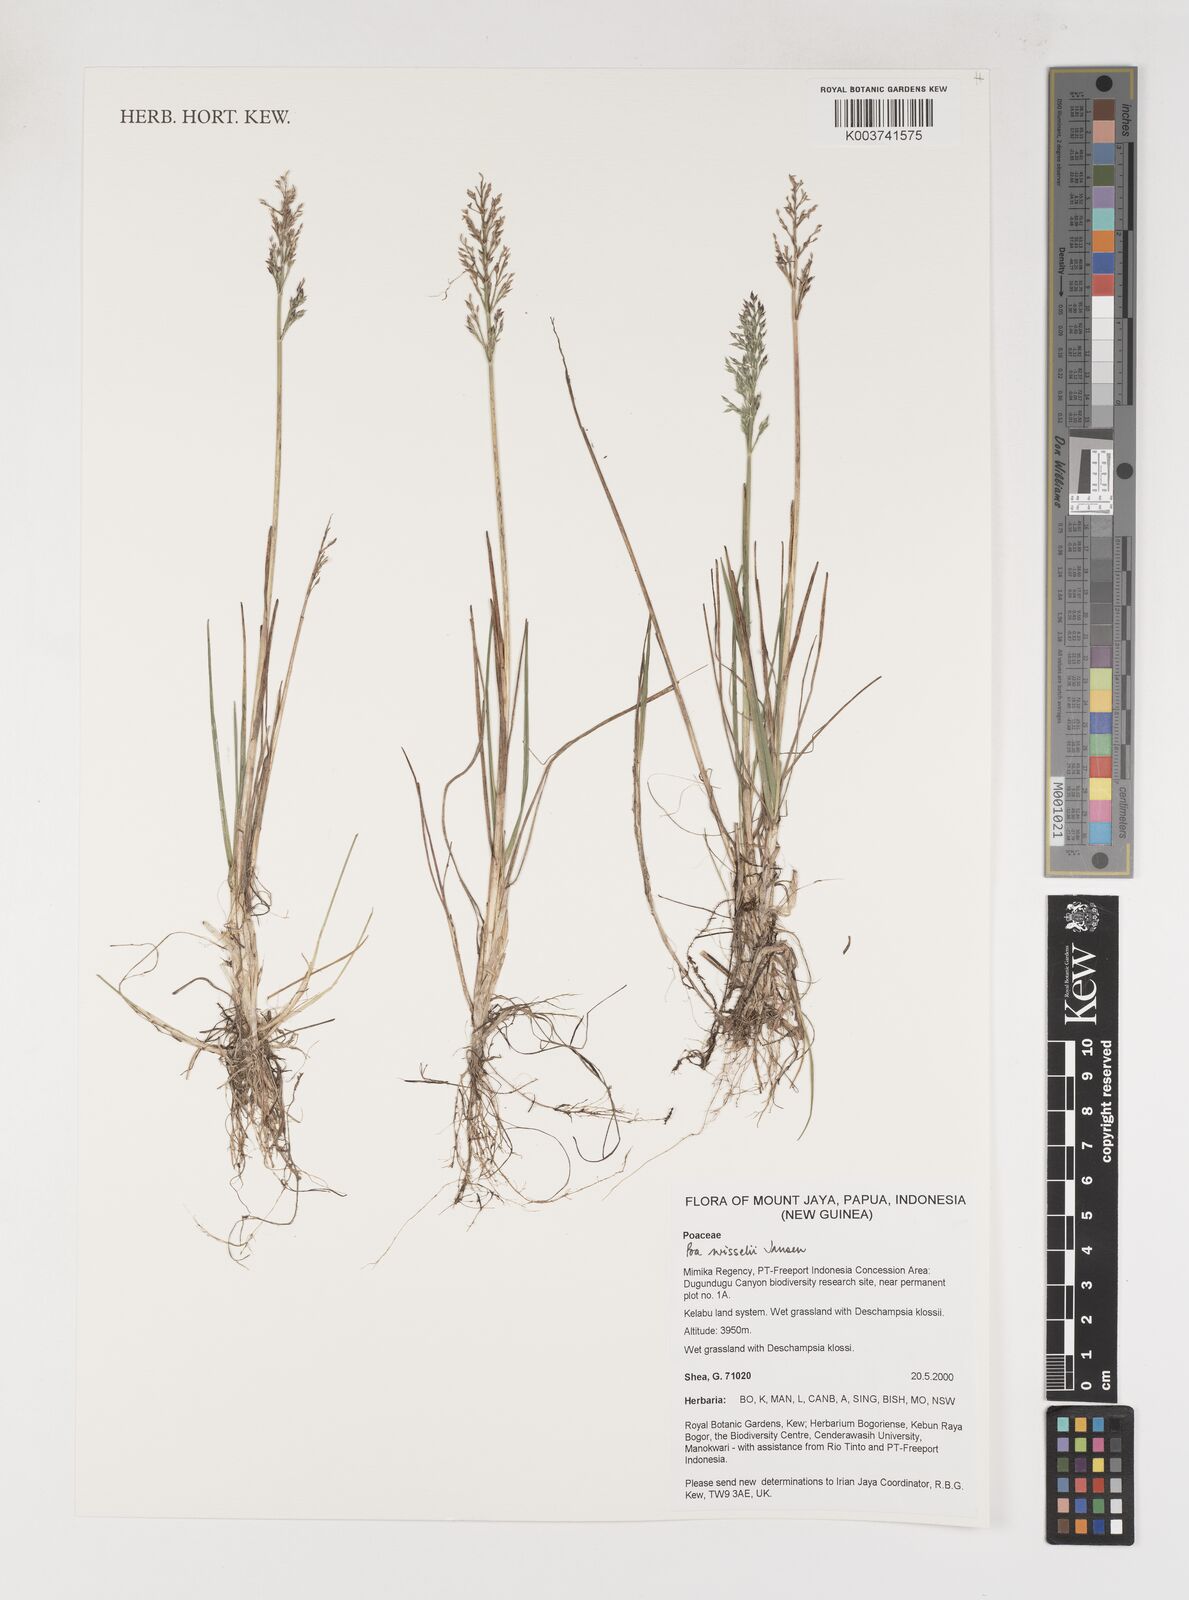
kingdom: Plantae
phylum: Tracheophyta
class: Liliopsida
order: Poales
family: Poaceae
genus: Poa
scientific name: Poa wisselii
